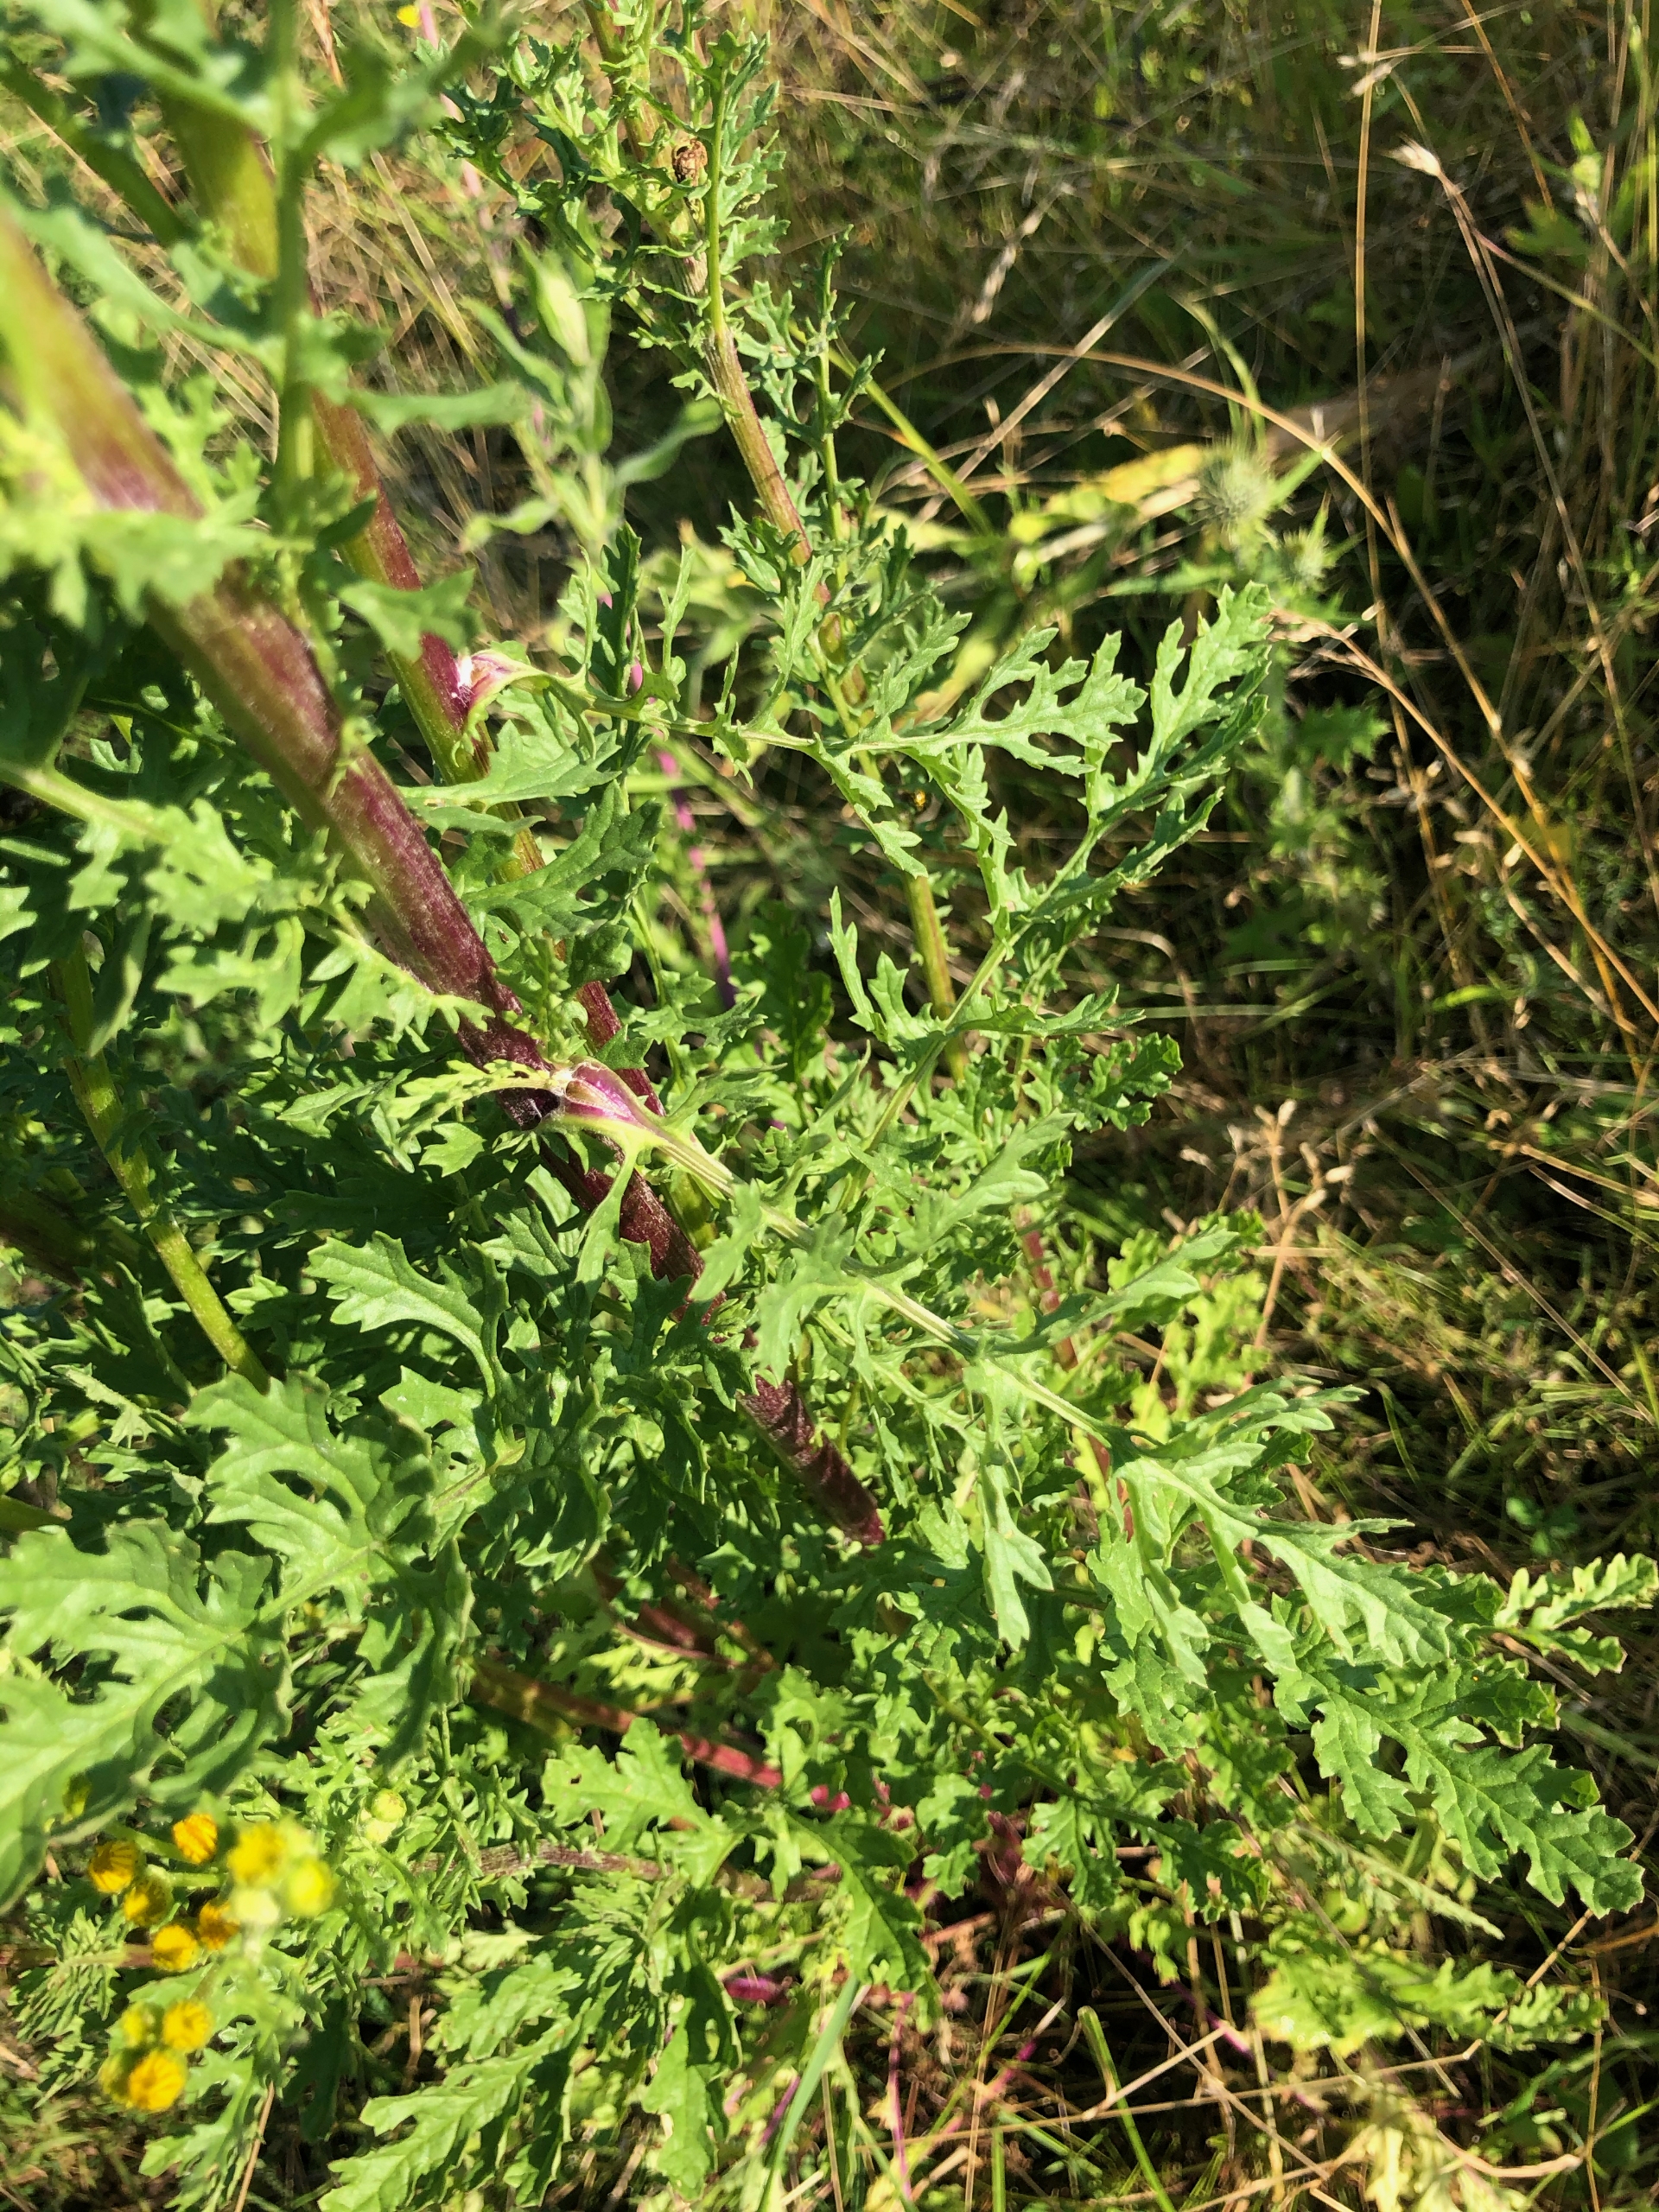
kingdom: Plantae
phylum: Tracheophyta
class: Magnoliopsida
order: Asterales
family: Asteraceae
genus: Jacobaea
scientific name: Jacobaea vulgaris
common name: Eng-brandbæger
